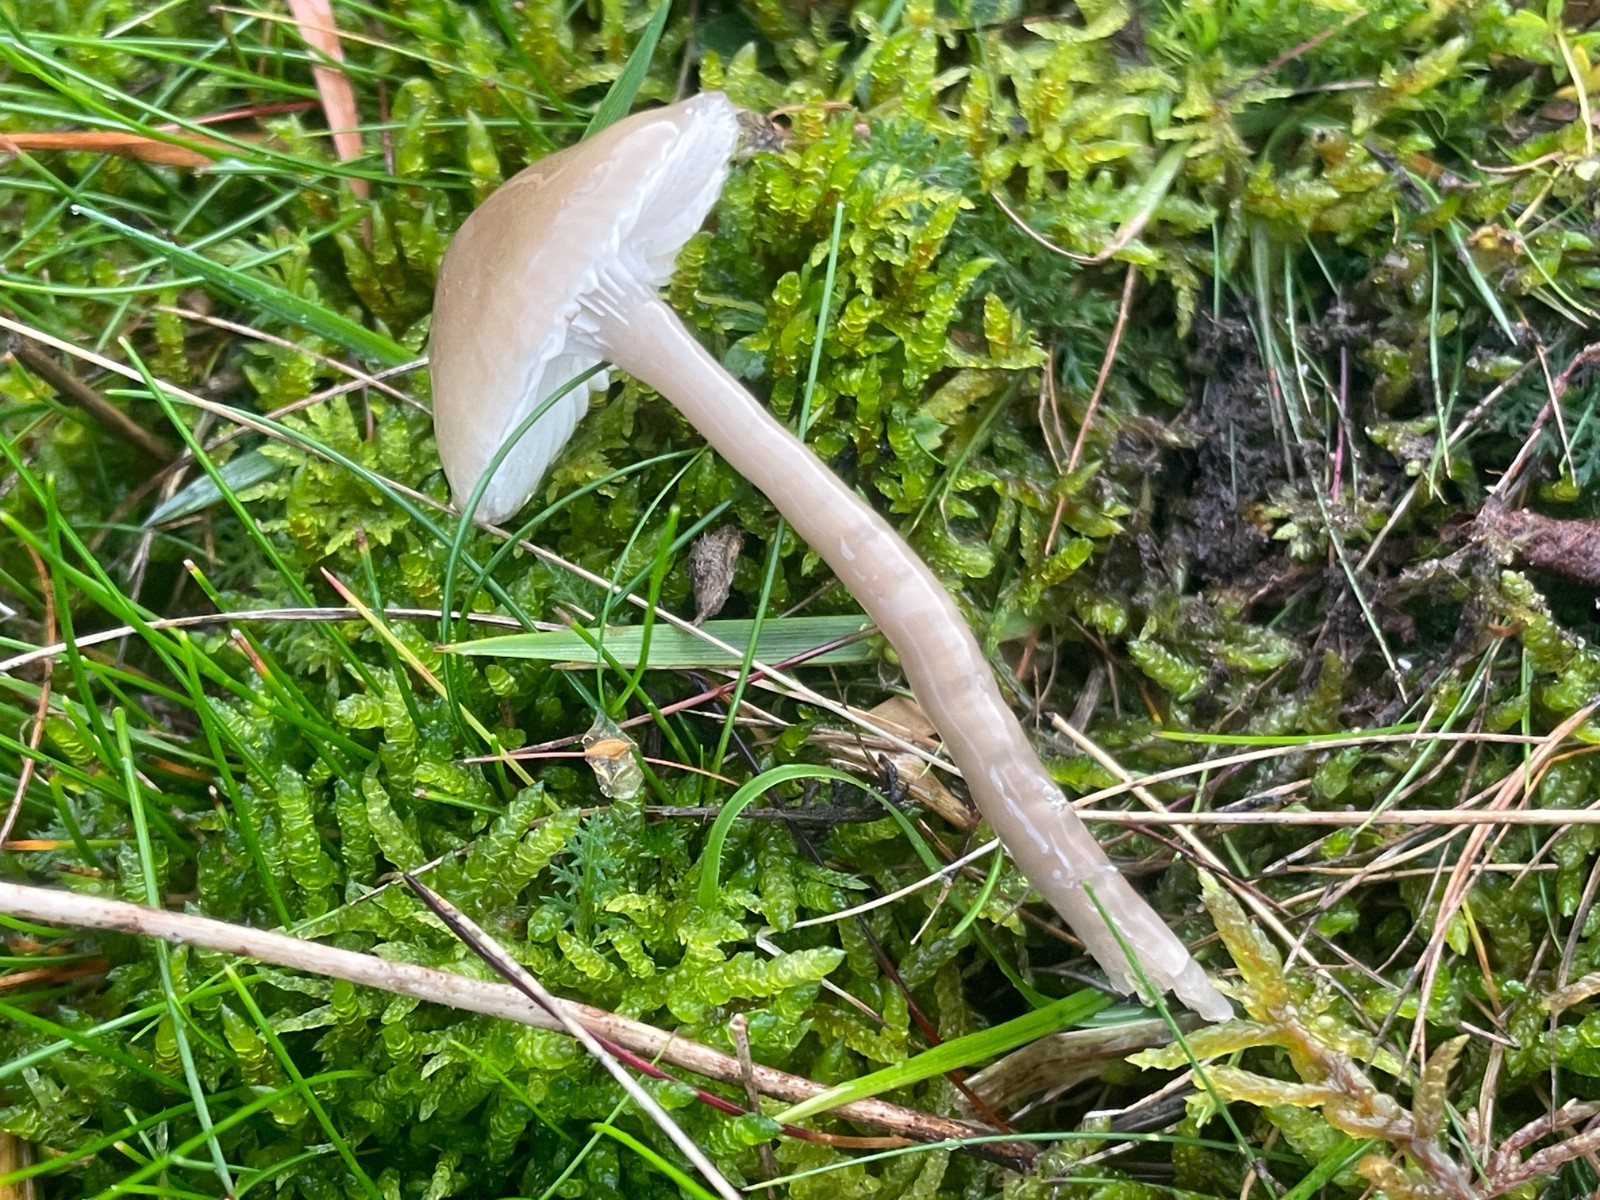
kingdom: Fungi
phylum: Basidiomycota
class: Agaricomycetes
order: Agaricales
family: Hygrophoraceae
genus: Gliophorus
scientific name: Gliophorus irrigatus
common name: slimet vokshat
